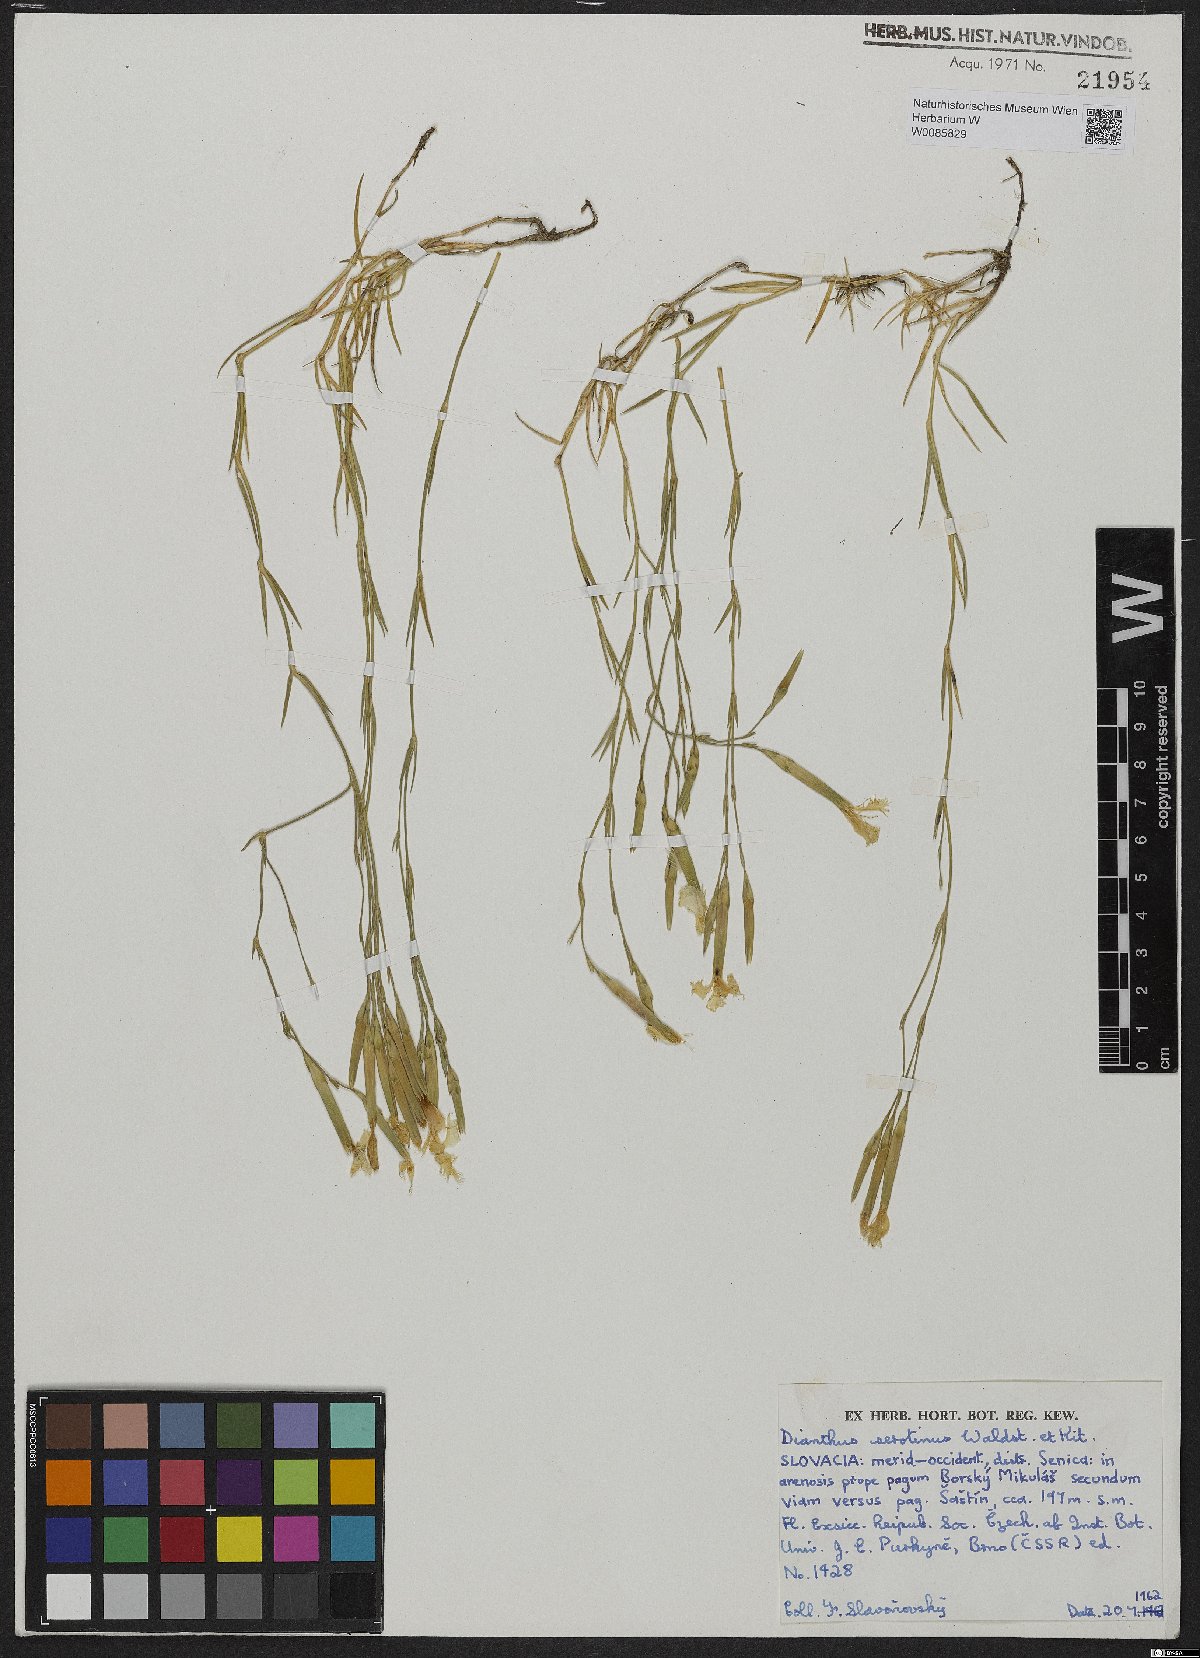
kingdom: Plantae
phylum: Tracheophyta
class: Magnoliopsida
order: Caryophyllales
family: Caryophyllaceae
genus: Dianthus
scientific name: Dianthus serotinus
